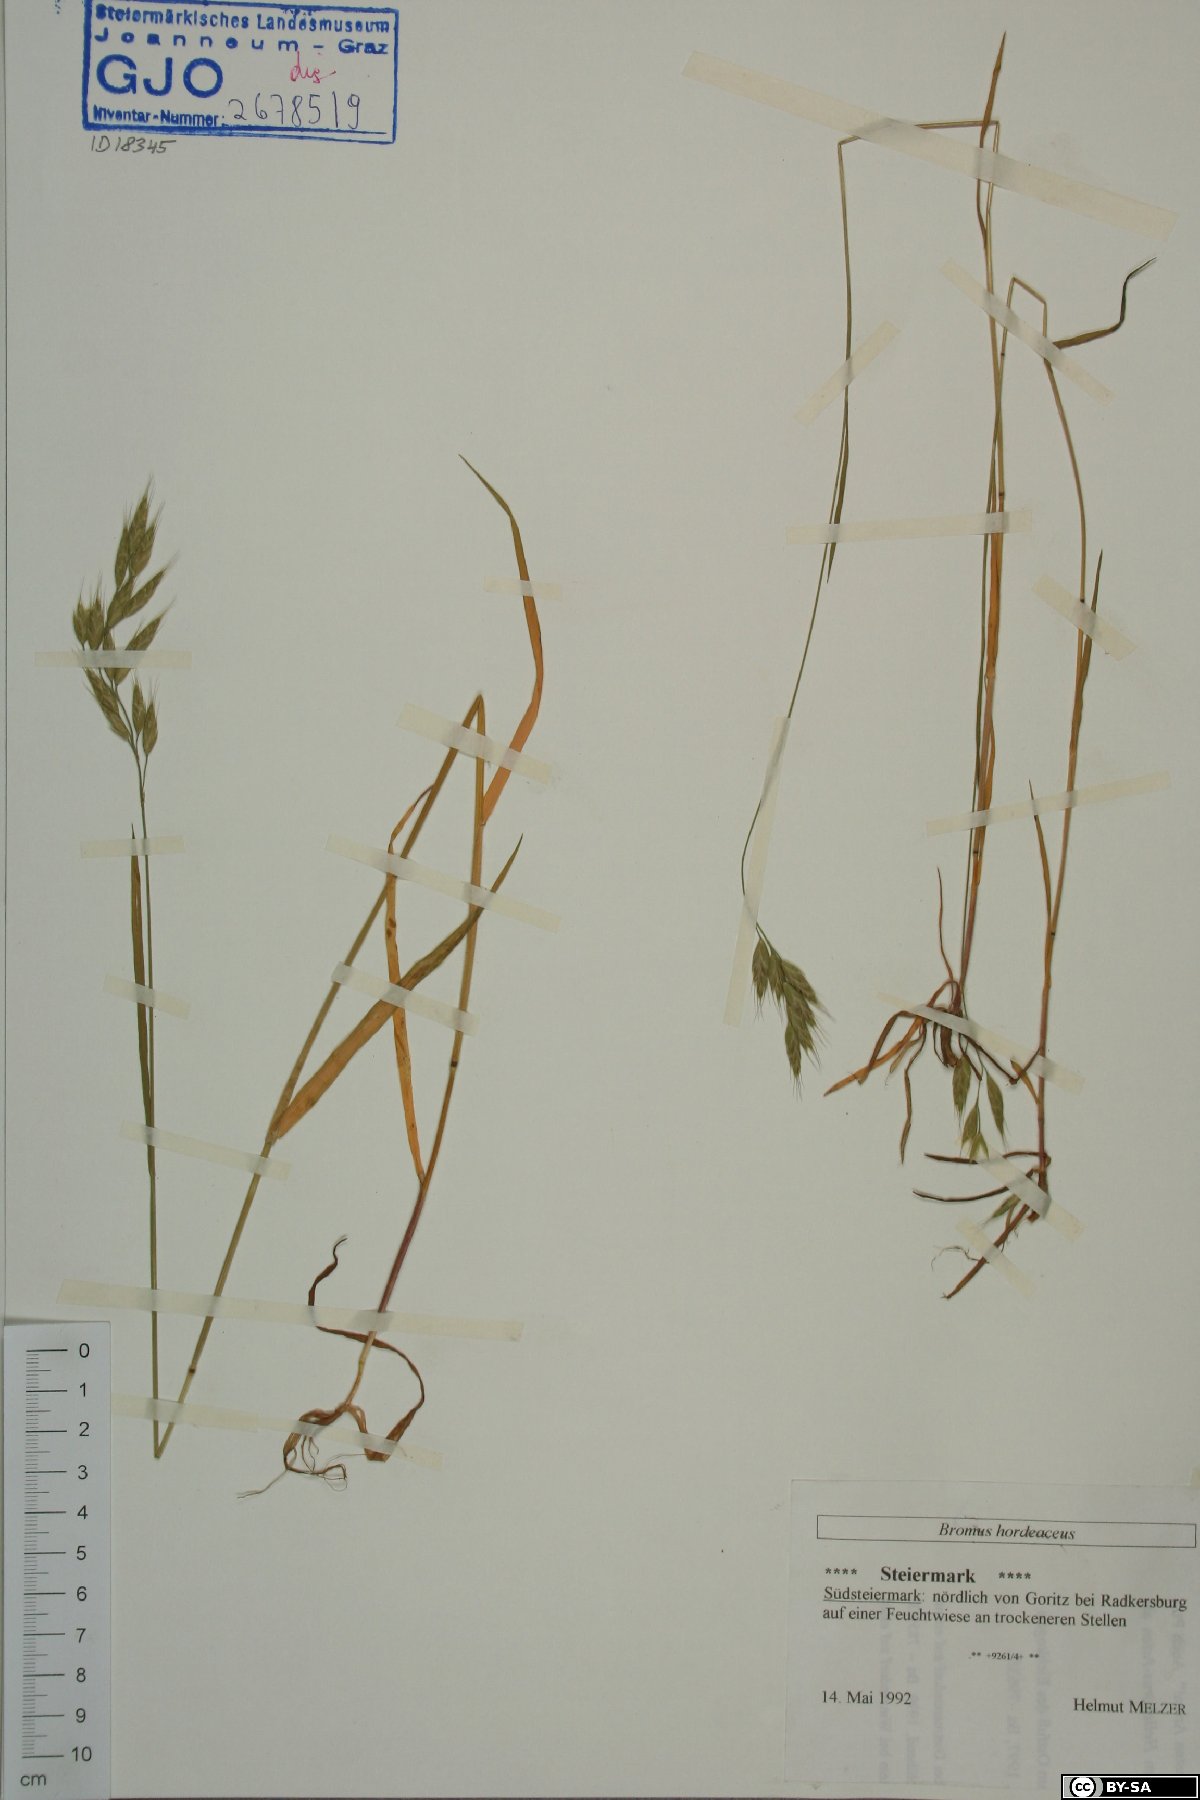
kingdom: Plantae
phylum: Tracheophyta
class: Liliopsida
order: Poales
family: Poaceae
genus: Bromus
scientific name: Bromus hordeaceus
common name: Soft brome
